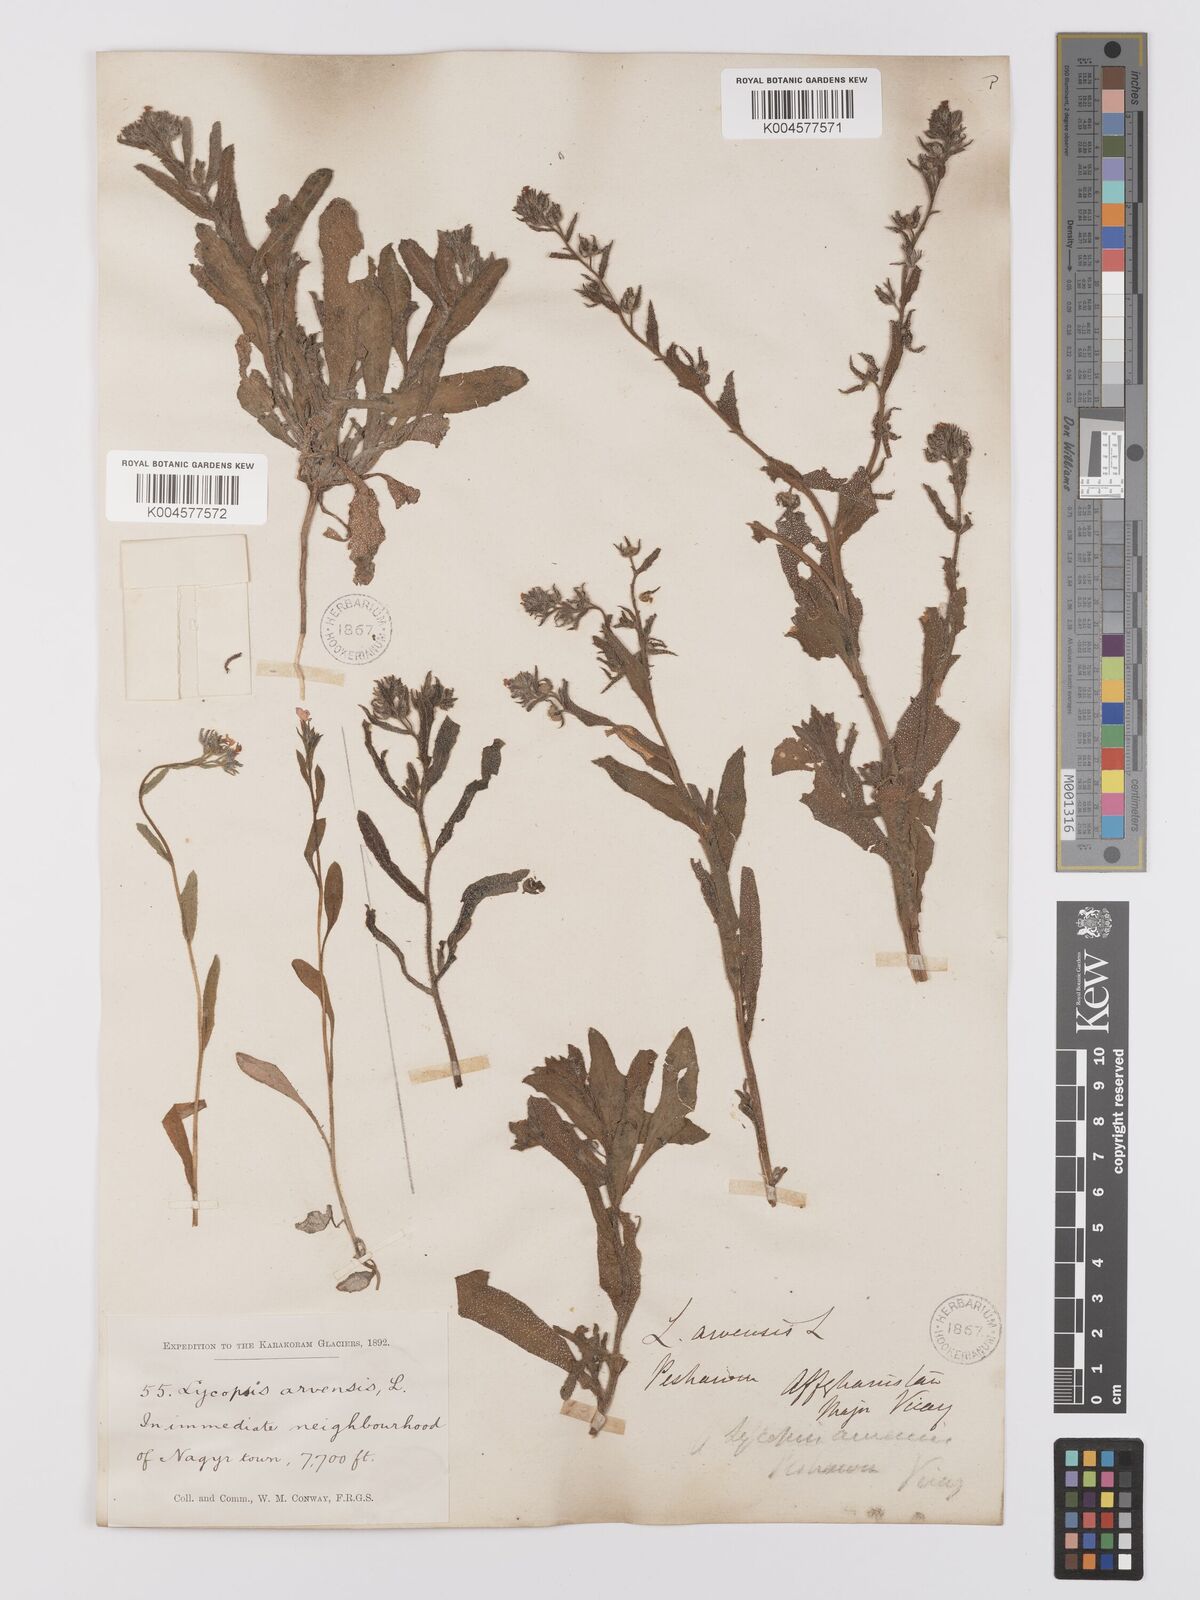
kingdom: Plantae
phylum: Tracheophyta
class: Magnoliopsida
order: Boraginales
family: Boraginaceae
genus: Lycopsis
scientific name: Lycopsis arvensis
